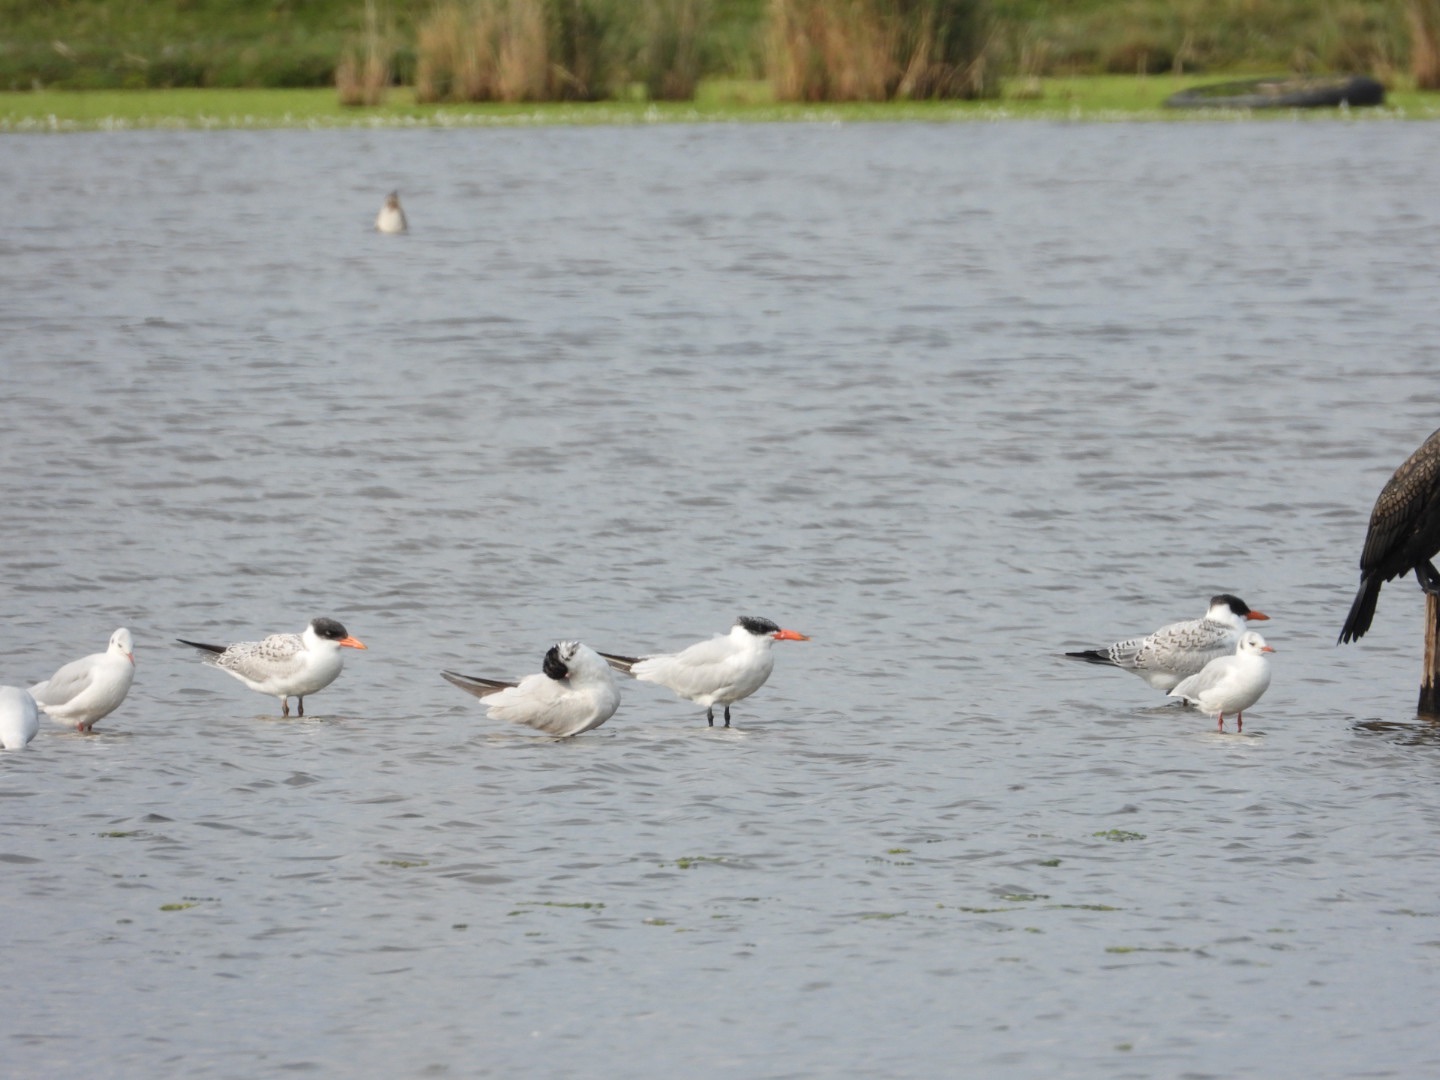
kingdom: Animalia
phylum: Chordata
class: Aves
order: Charadriiformes
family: Laridae
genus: Hydroprogne
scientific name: Hydroprogne caspia
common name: Rovterne
